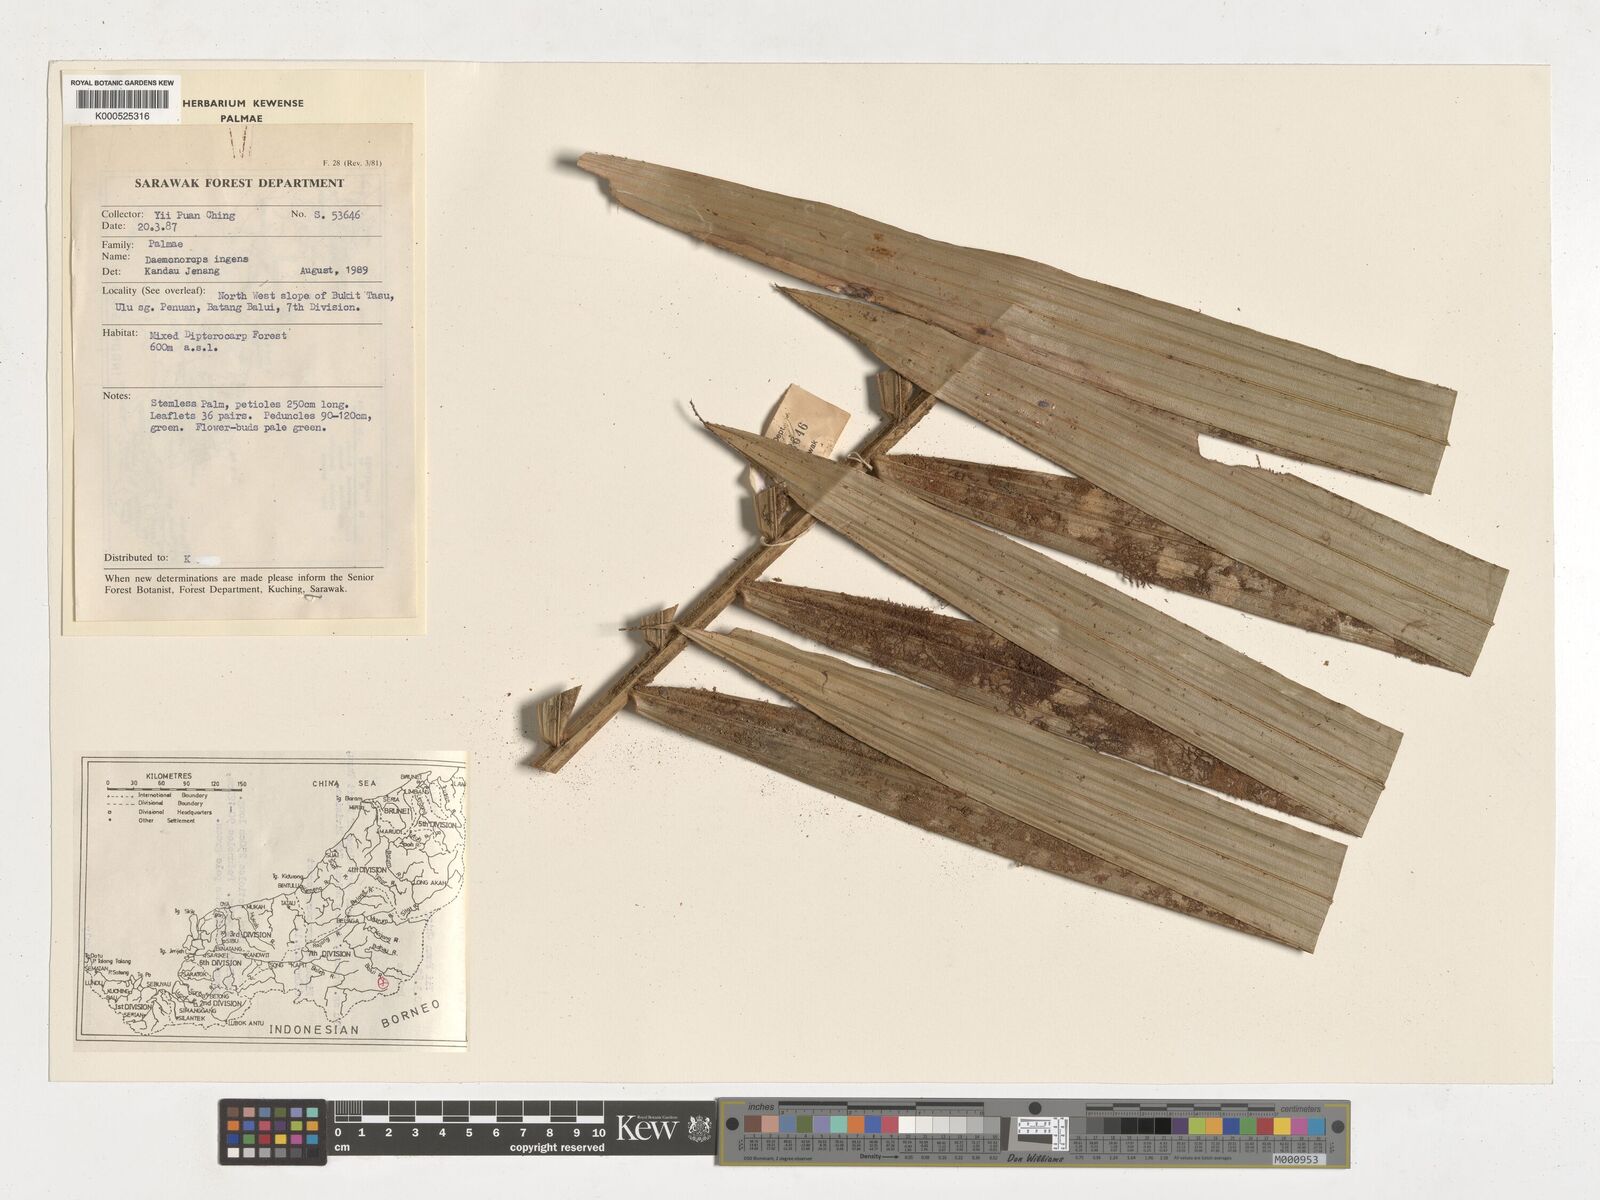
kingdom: Plantae
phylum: Tracheophyta
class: Liliopsida
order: Arecales
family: Arecaceae
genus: Calamus
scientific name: Calamus ingens
